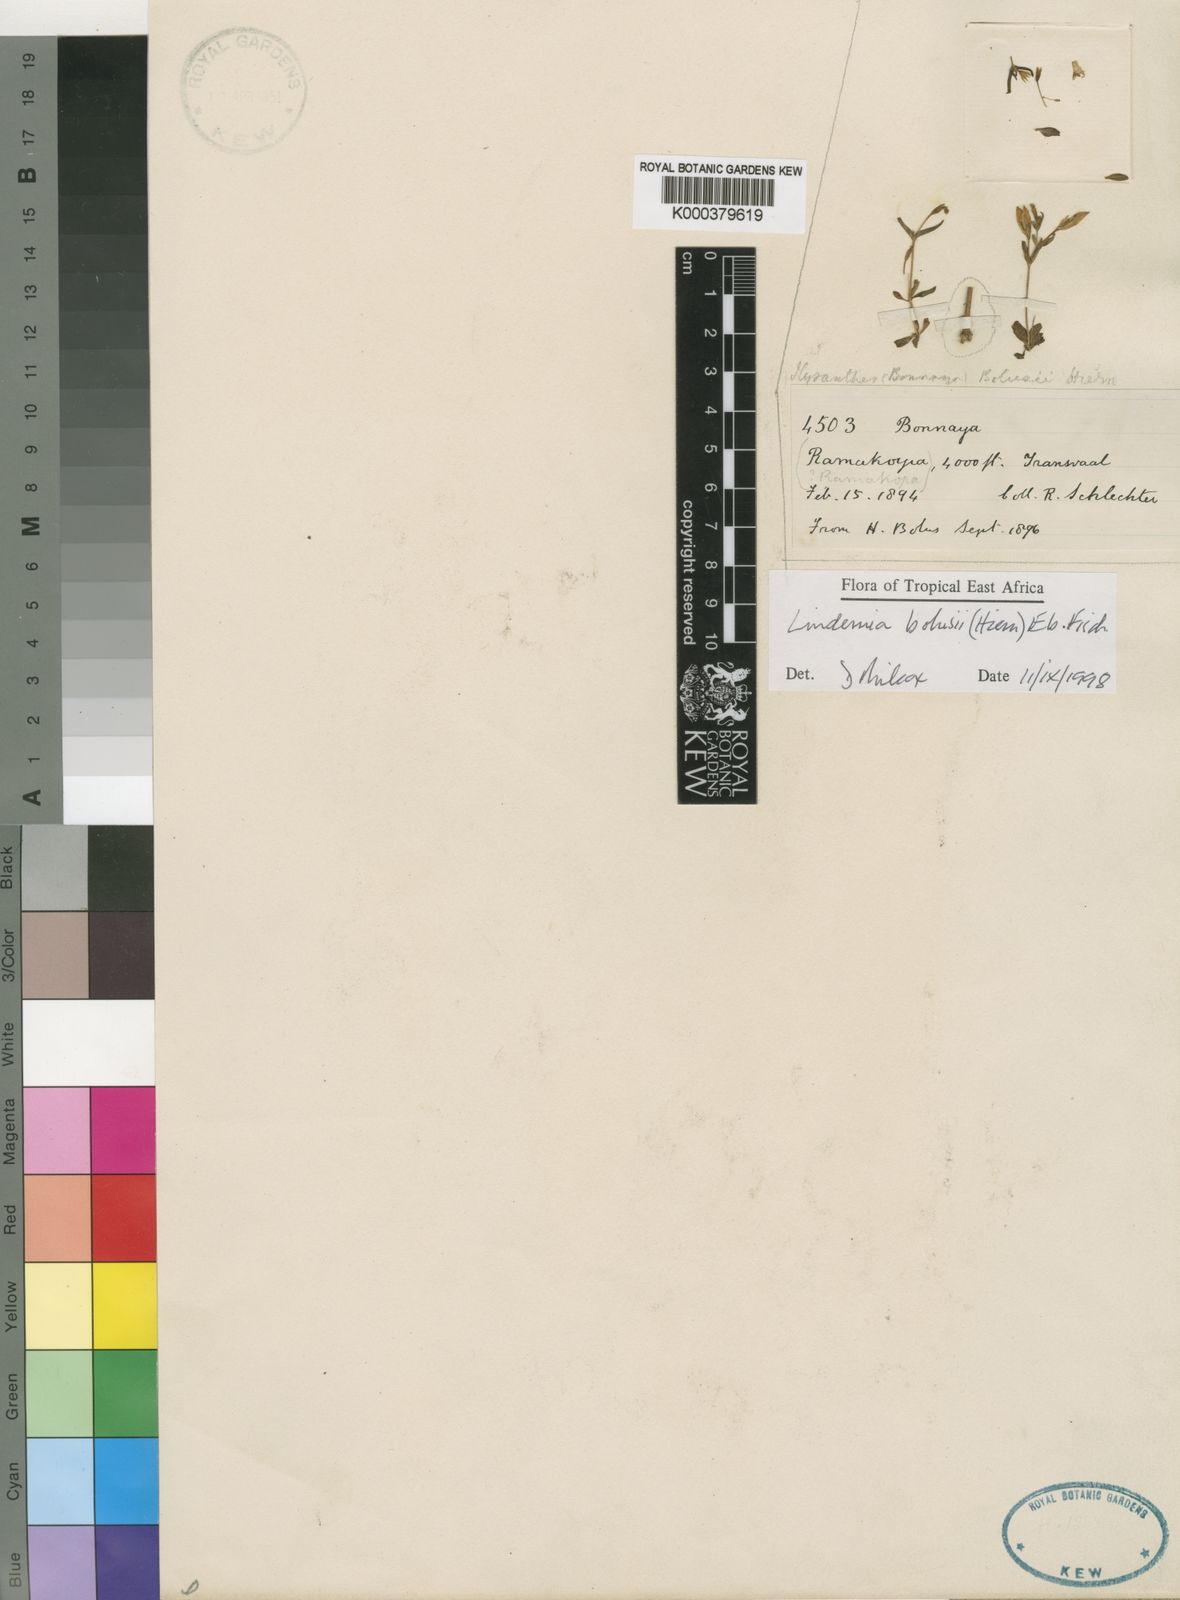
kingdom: Plantae
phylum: Tracheophyta
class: Magnoliopsida
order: Lamiales
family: Linderniaceae
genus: Linderniella
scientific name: Linderniella bolusii
